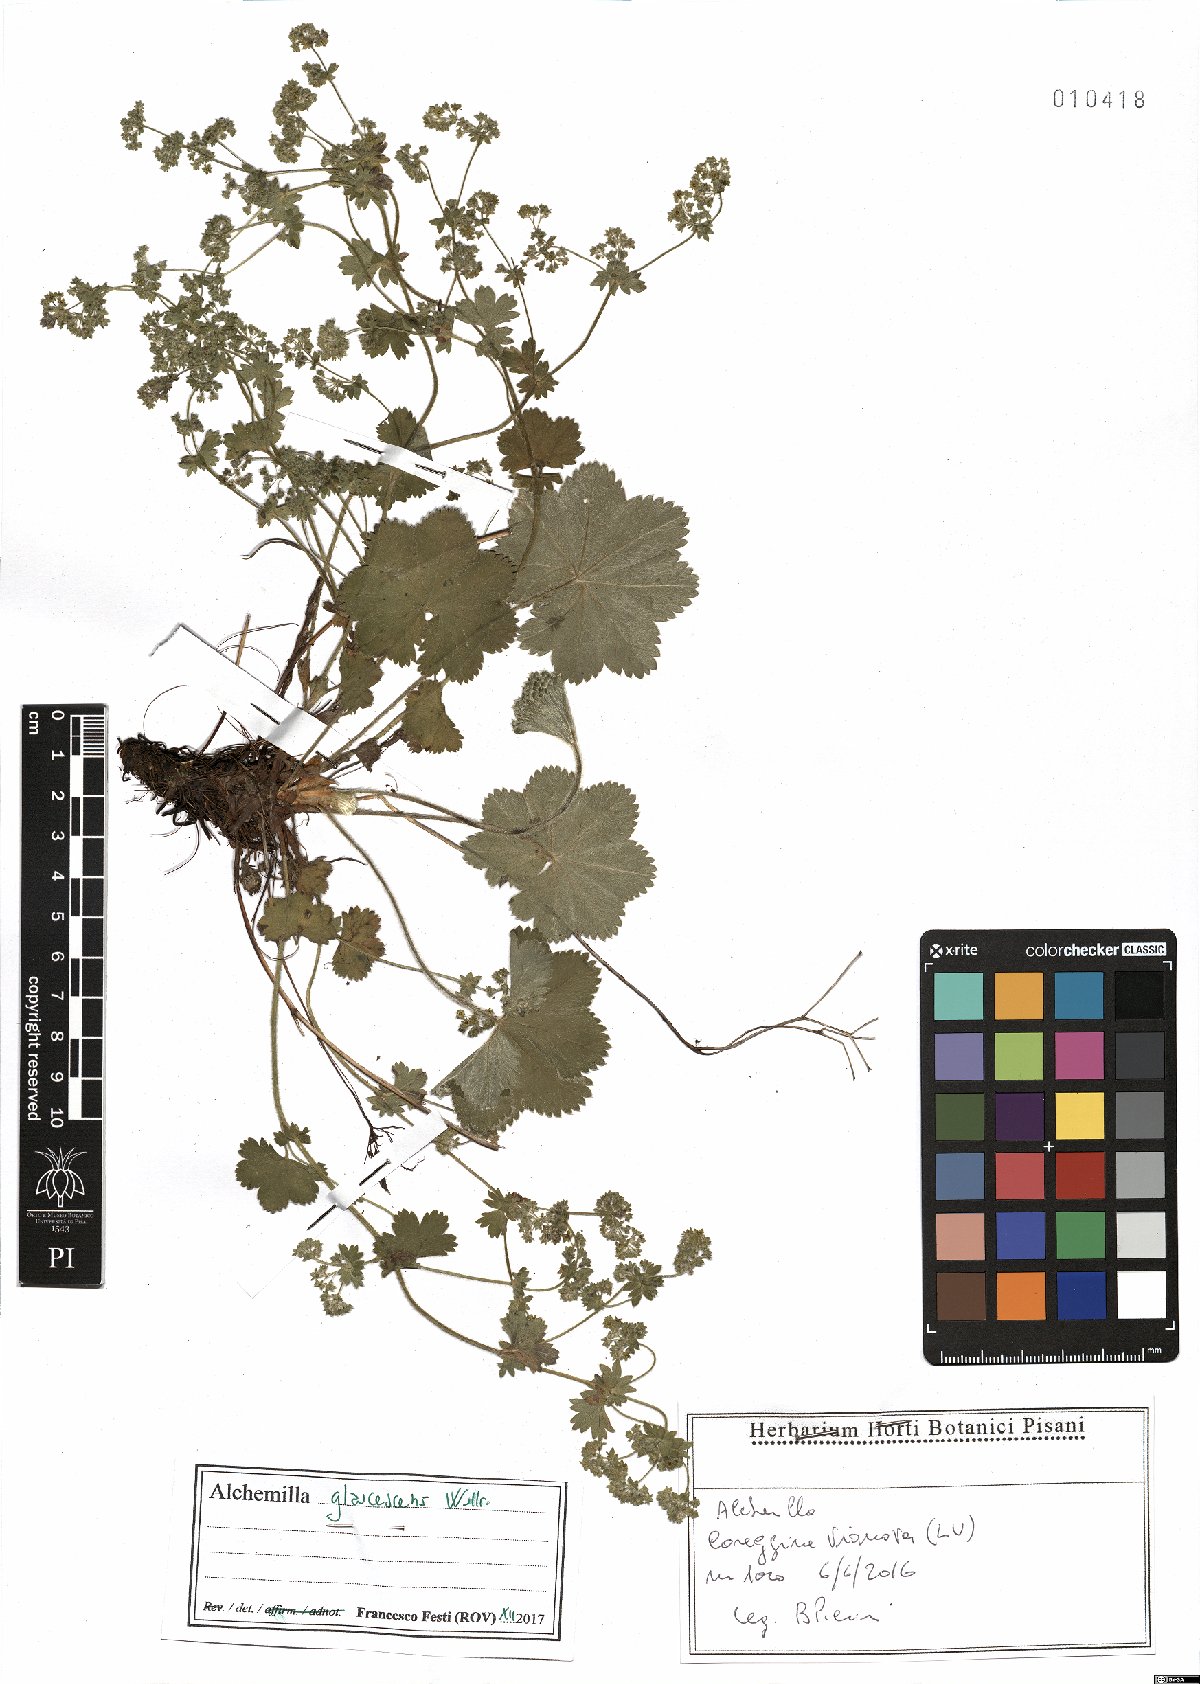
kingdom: Plantae
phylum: Tracheophyta
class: Magnoliopsida
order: Rosales
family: Rosaceae
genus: Alchemilla
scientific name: Alchemilla glaucescens
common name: Silky lady's mantle
